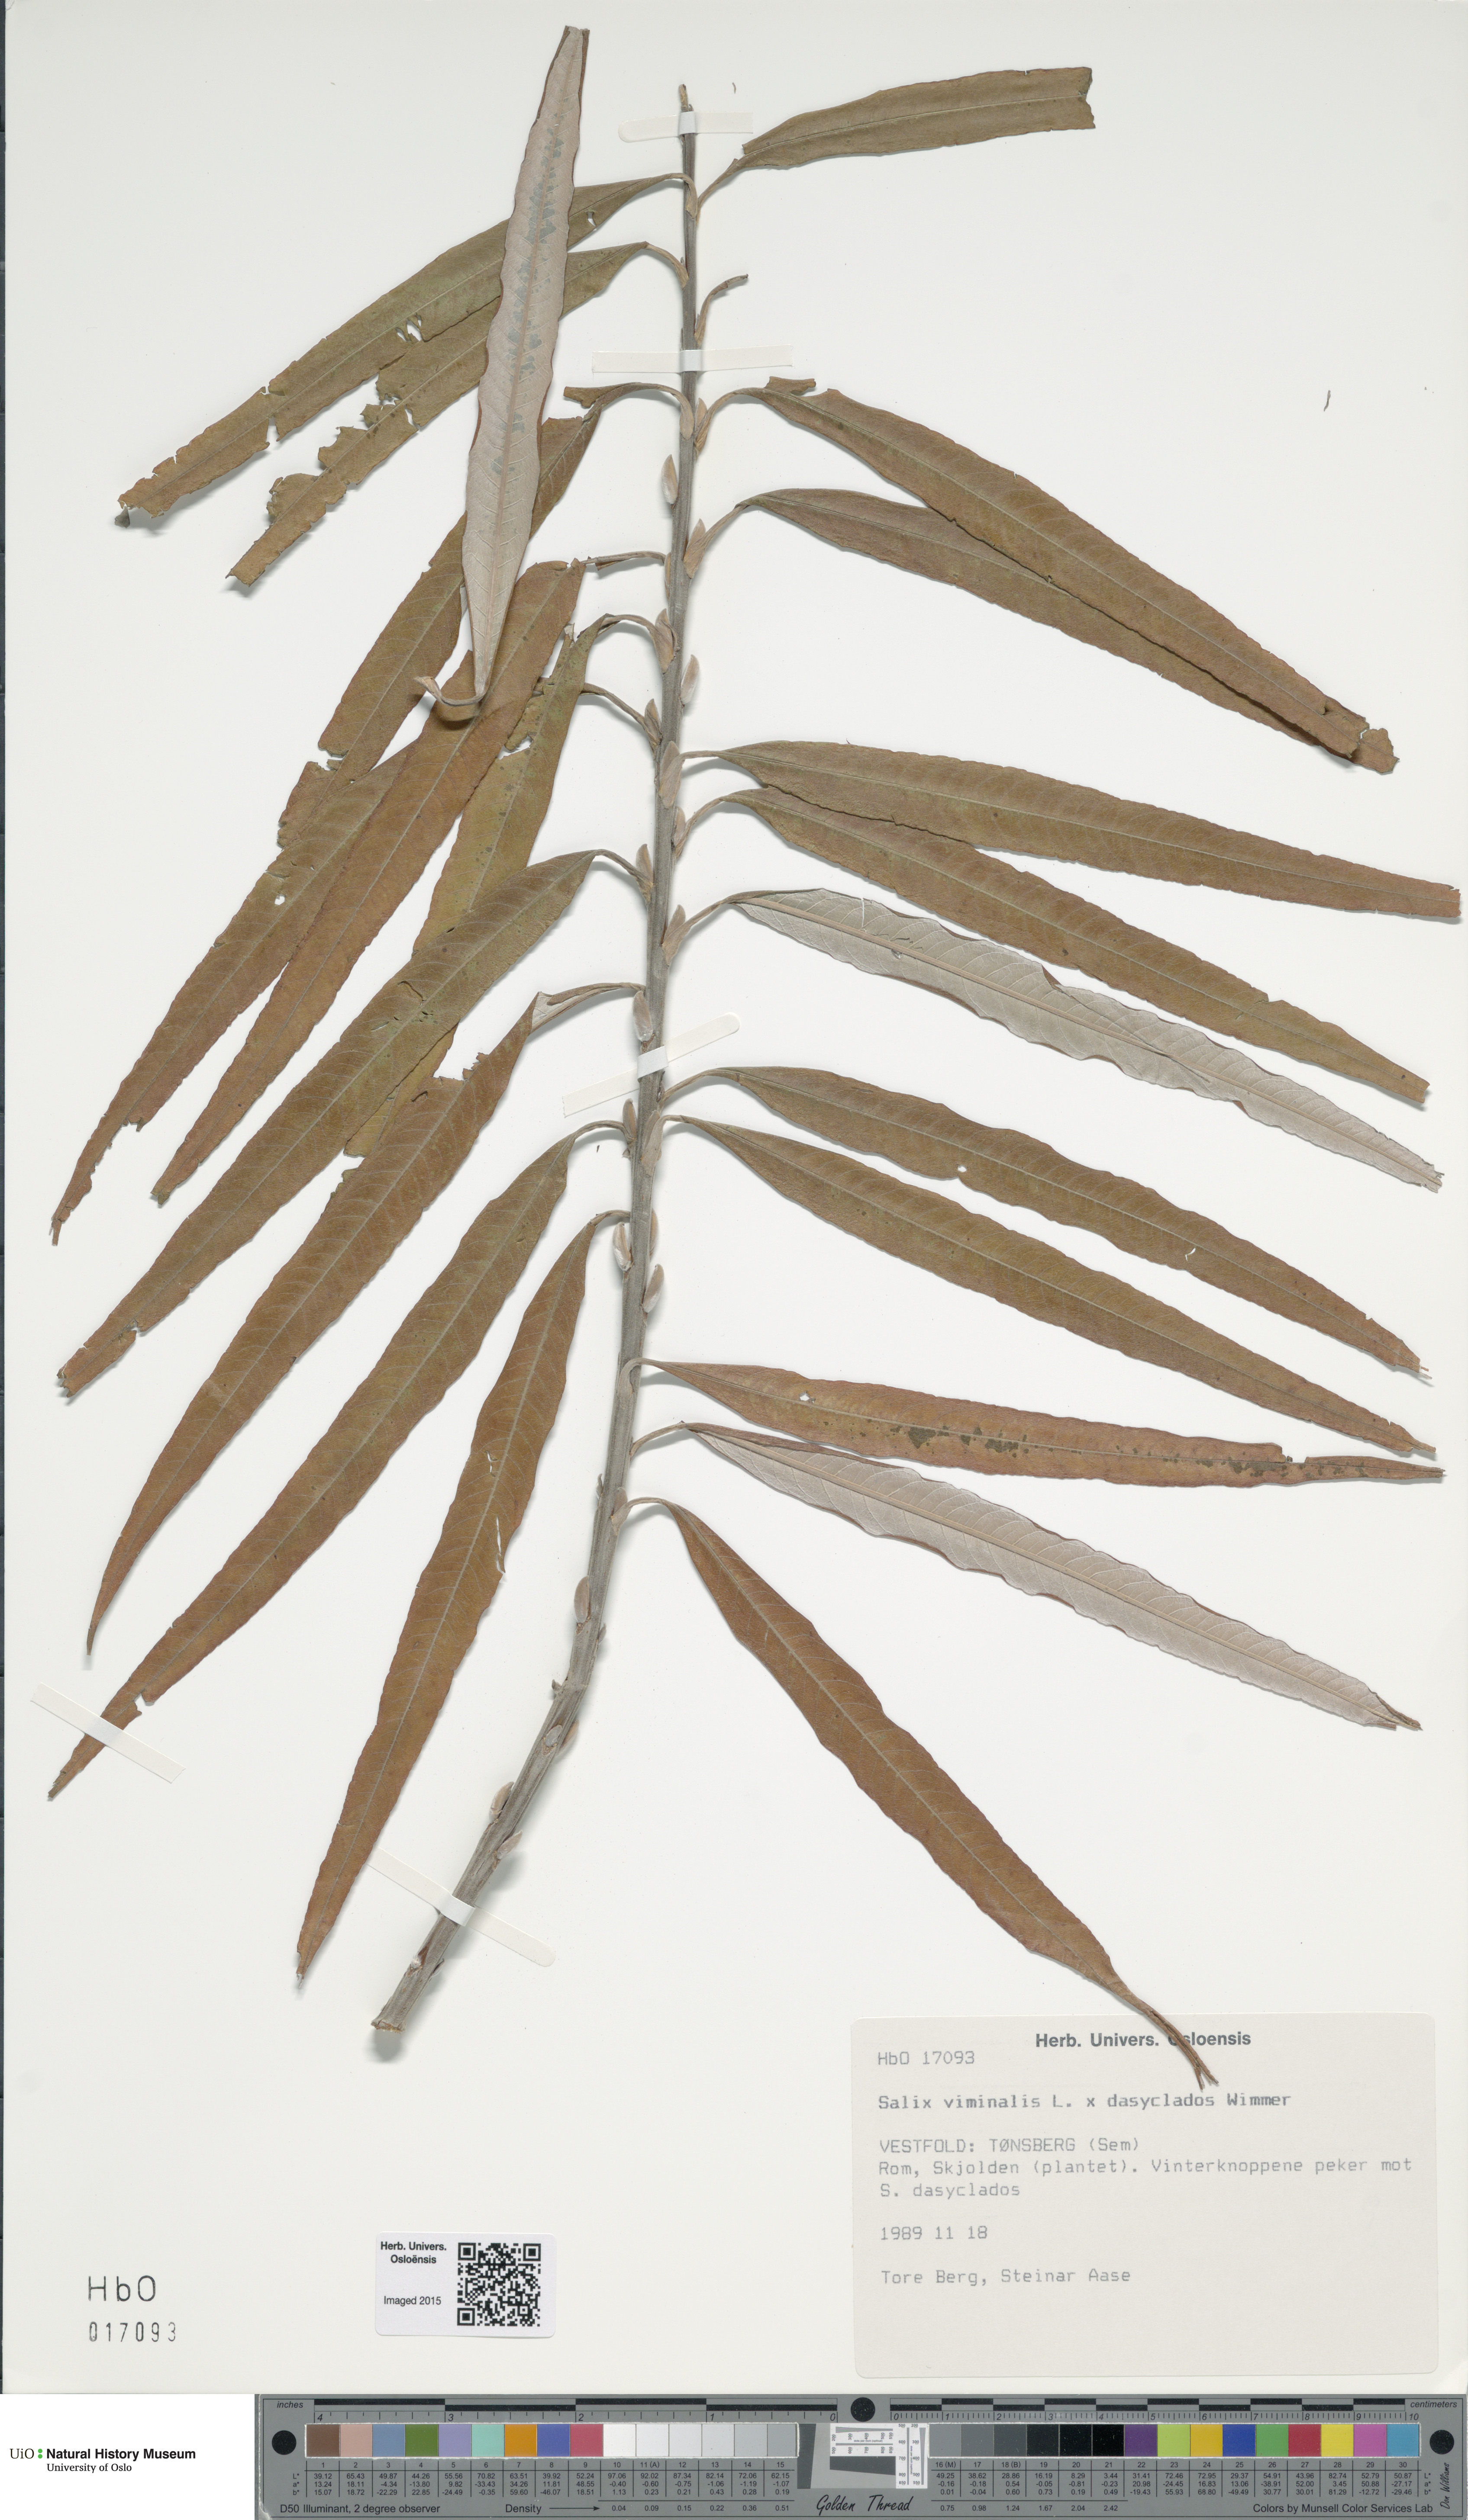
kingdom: Plantae
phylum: Tracheophyta
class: Magnoliopsida
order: Malpighiales
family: Salicaceae
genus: Salix
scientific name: Salix
